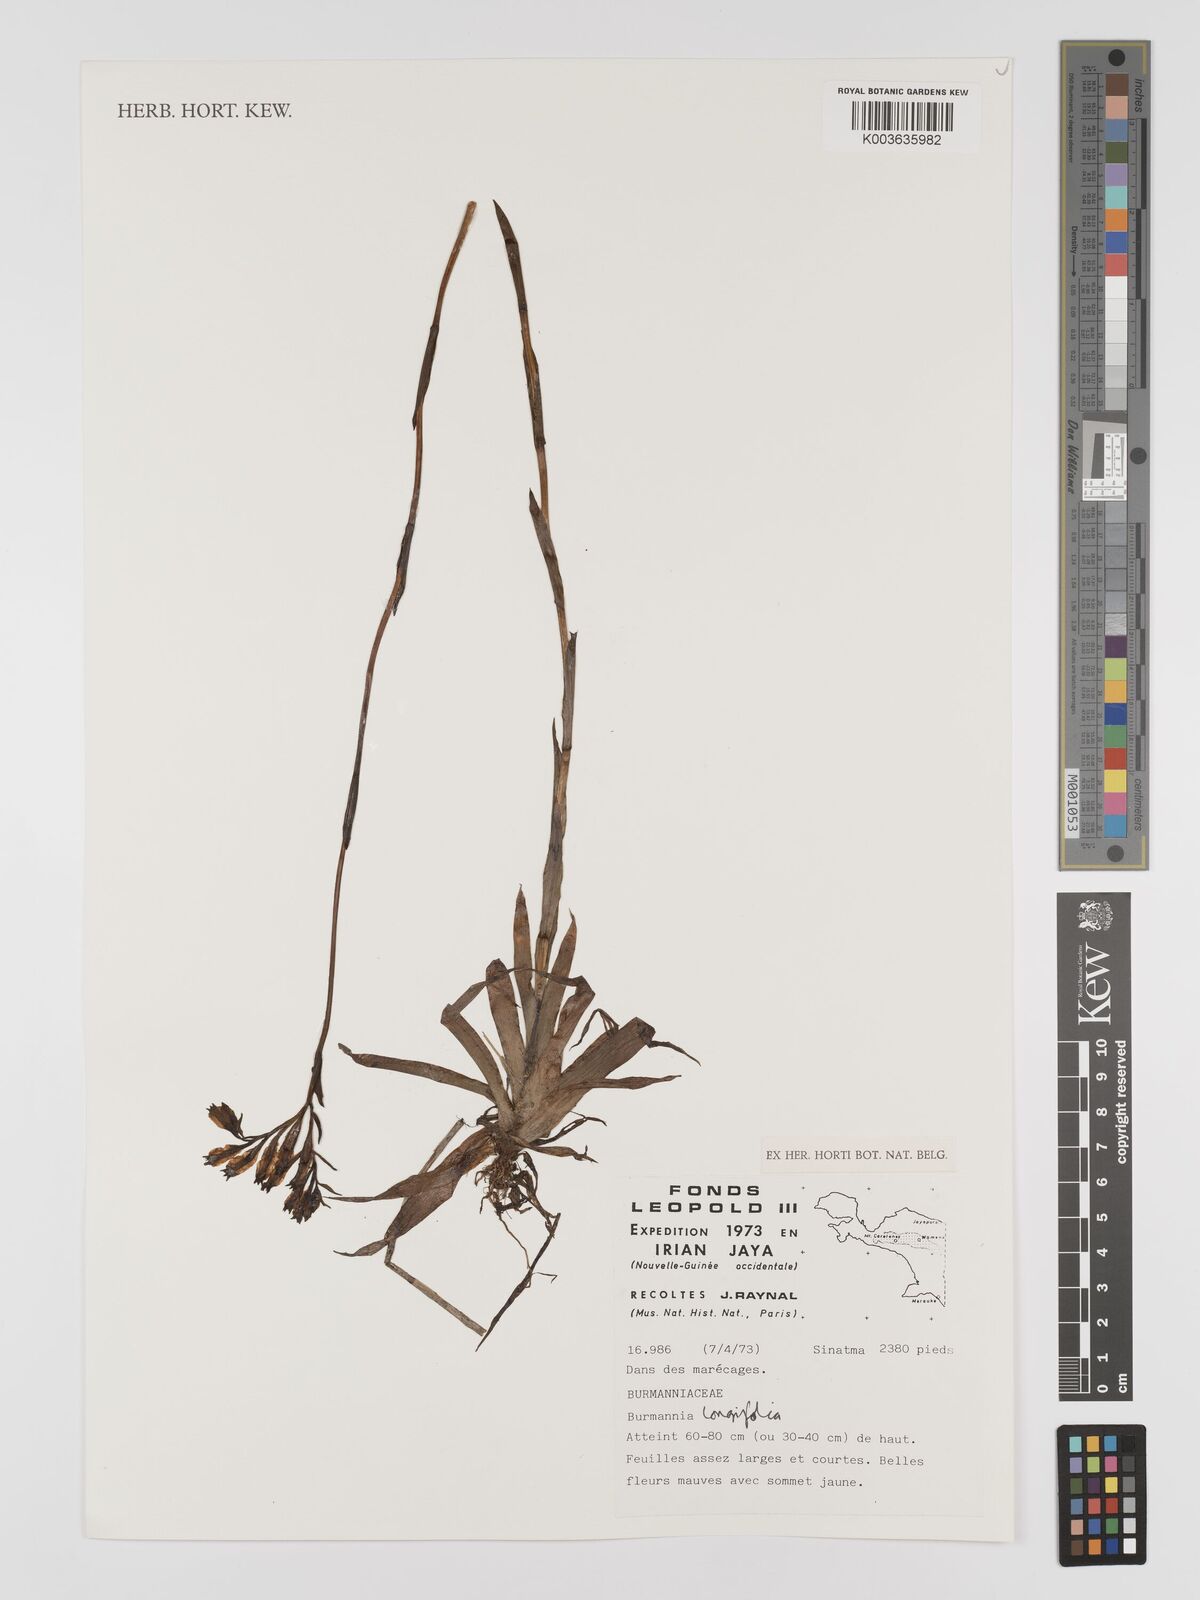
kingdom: Plantae
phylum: Tracheophyta
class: Liliopsida
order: Dioscoreales
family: Burmanniaceae
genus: Burmannia
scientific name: Burmannia longifolia
